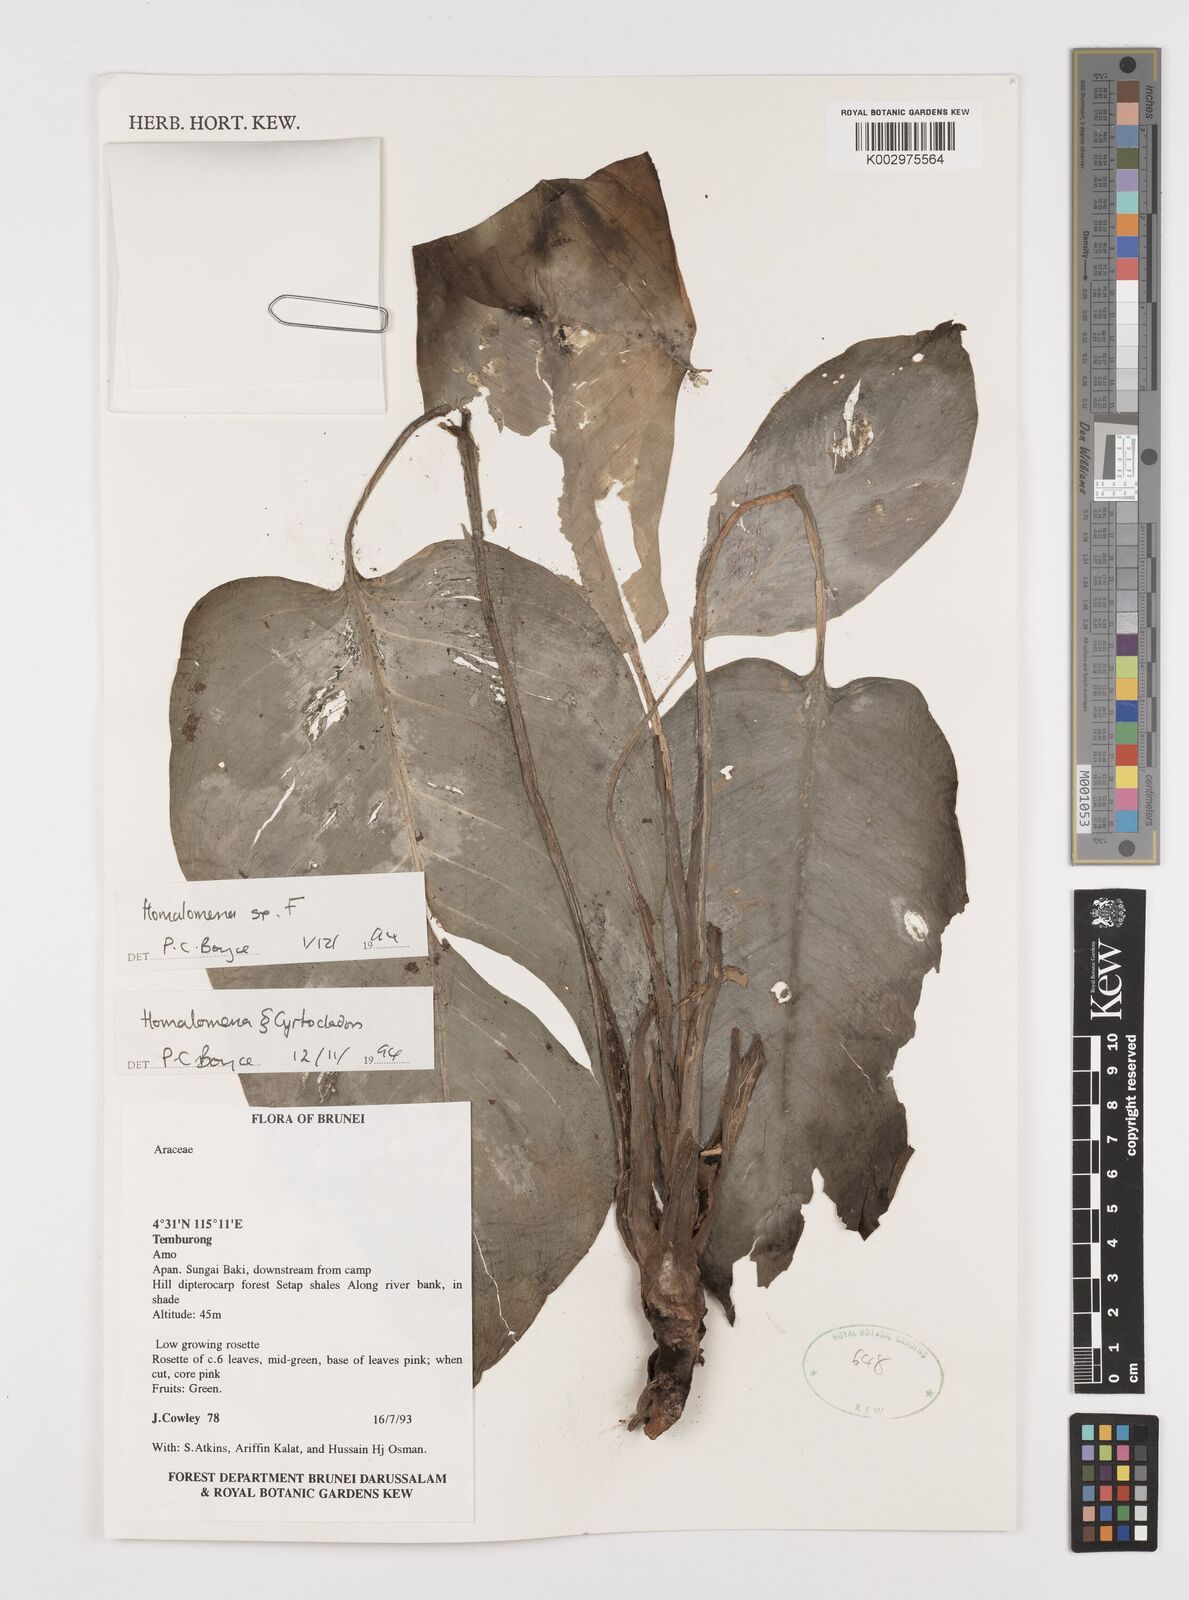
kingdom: Plantae
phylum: Tracheophyta
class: Liliopsida
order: Alismatales
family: Araceae
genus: Homalomena
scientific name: Homalomena
